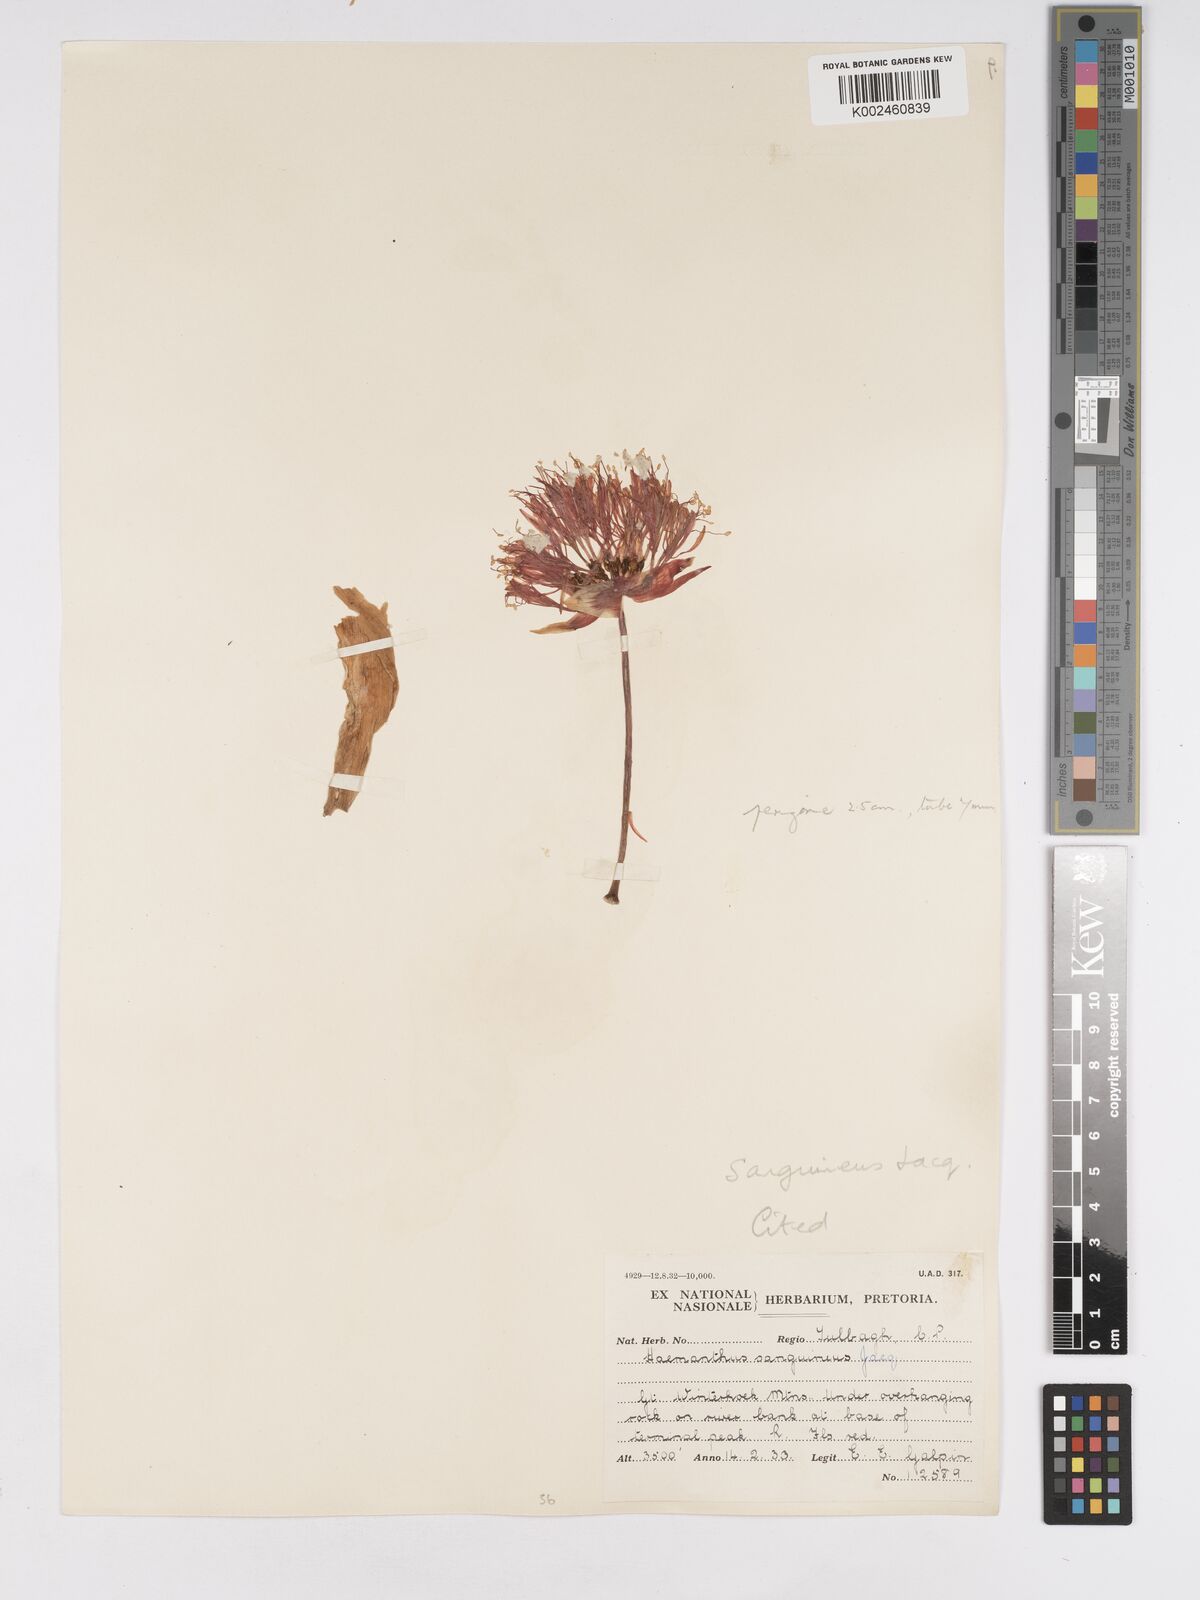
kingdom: Plantae
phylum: Tracheophyta
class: Liliopsida
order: Asparagales
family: Amaryllidaceae
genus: Haemanthus
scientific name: Haemanthus sanguineus
